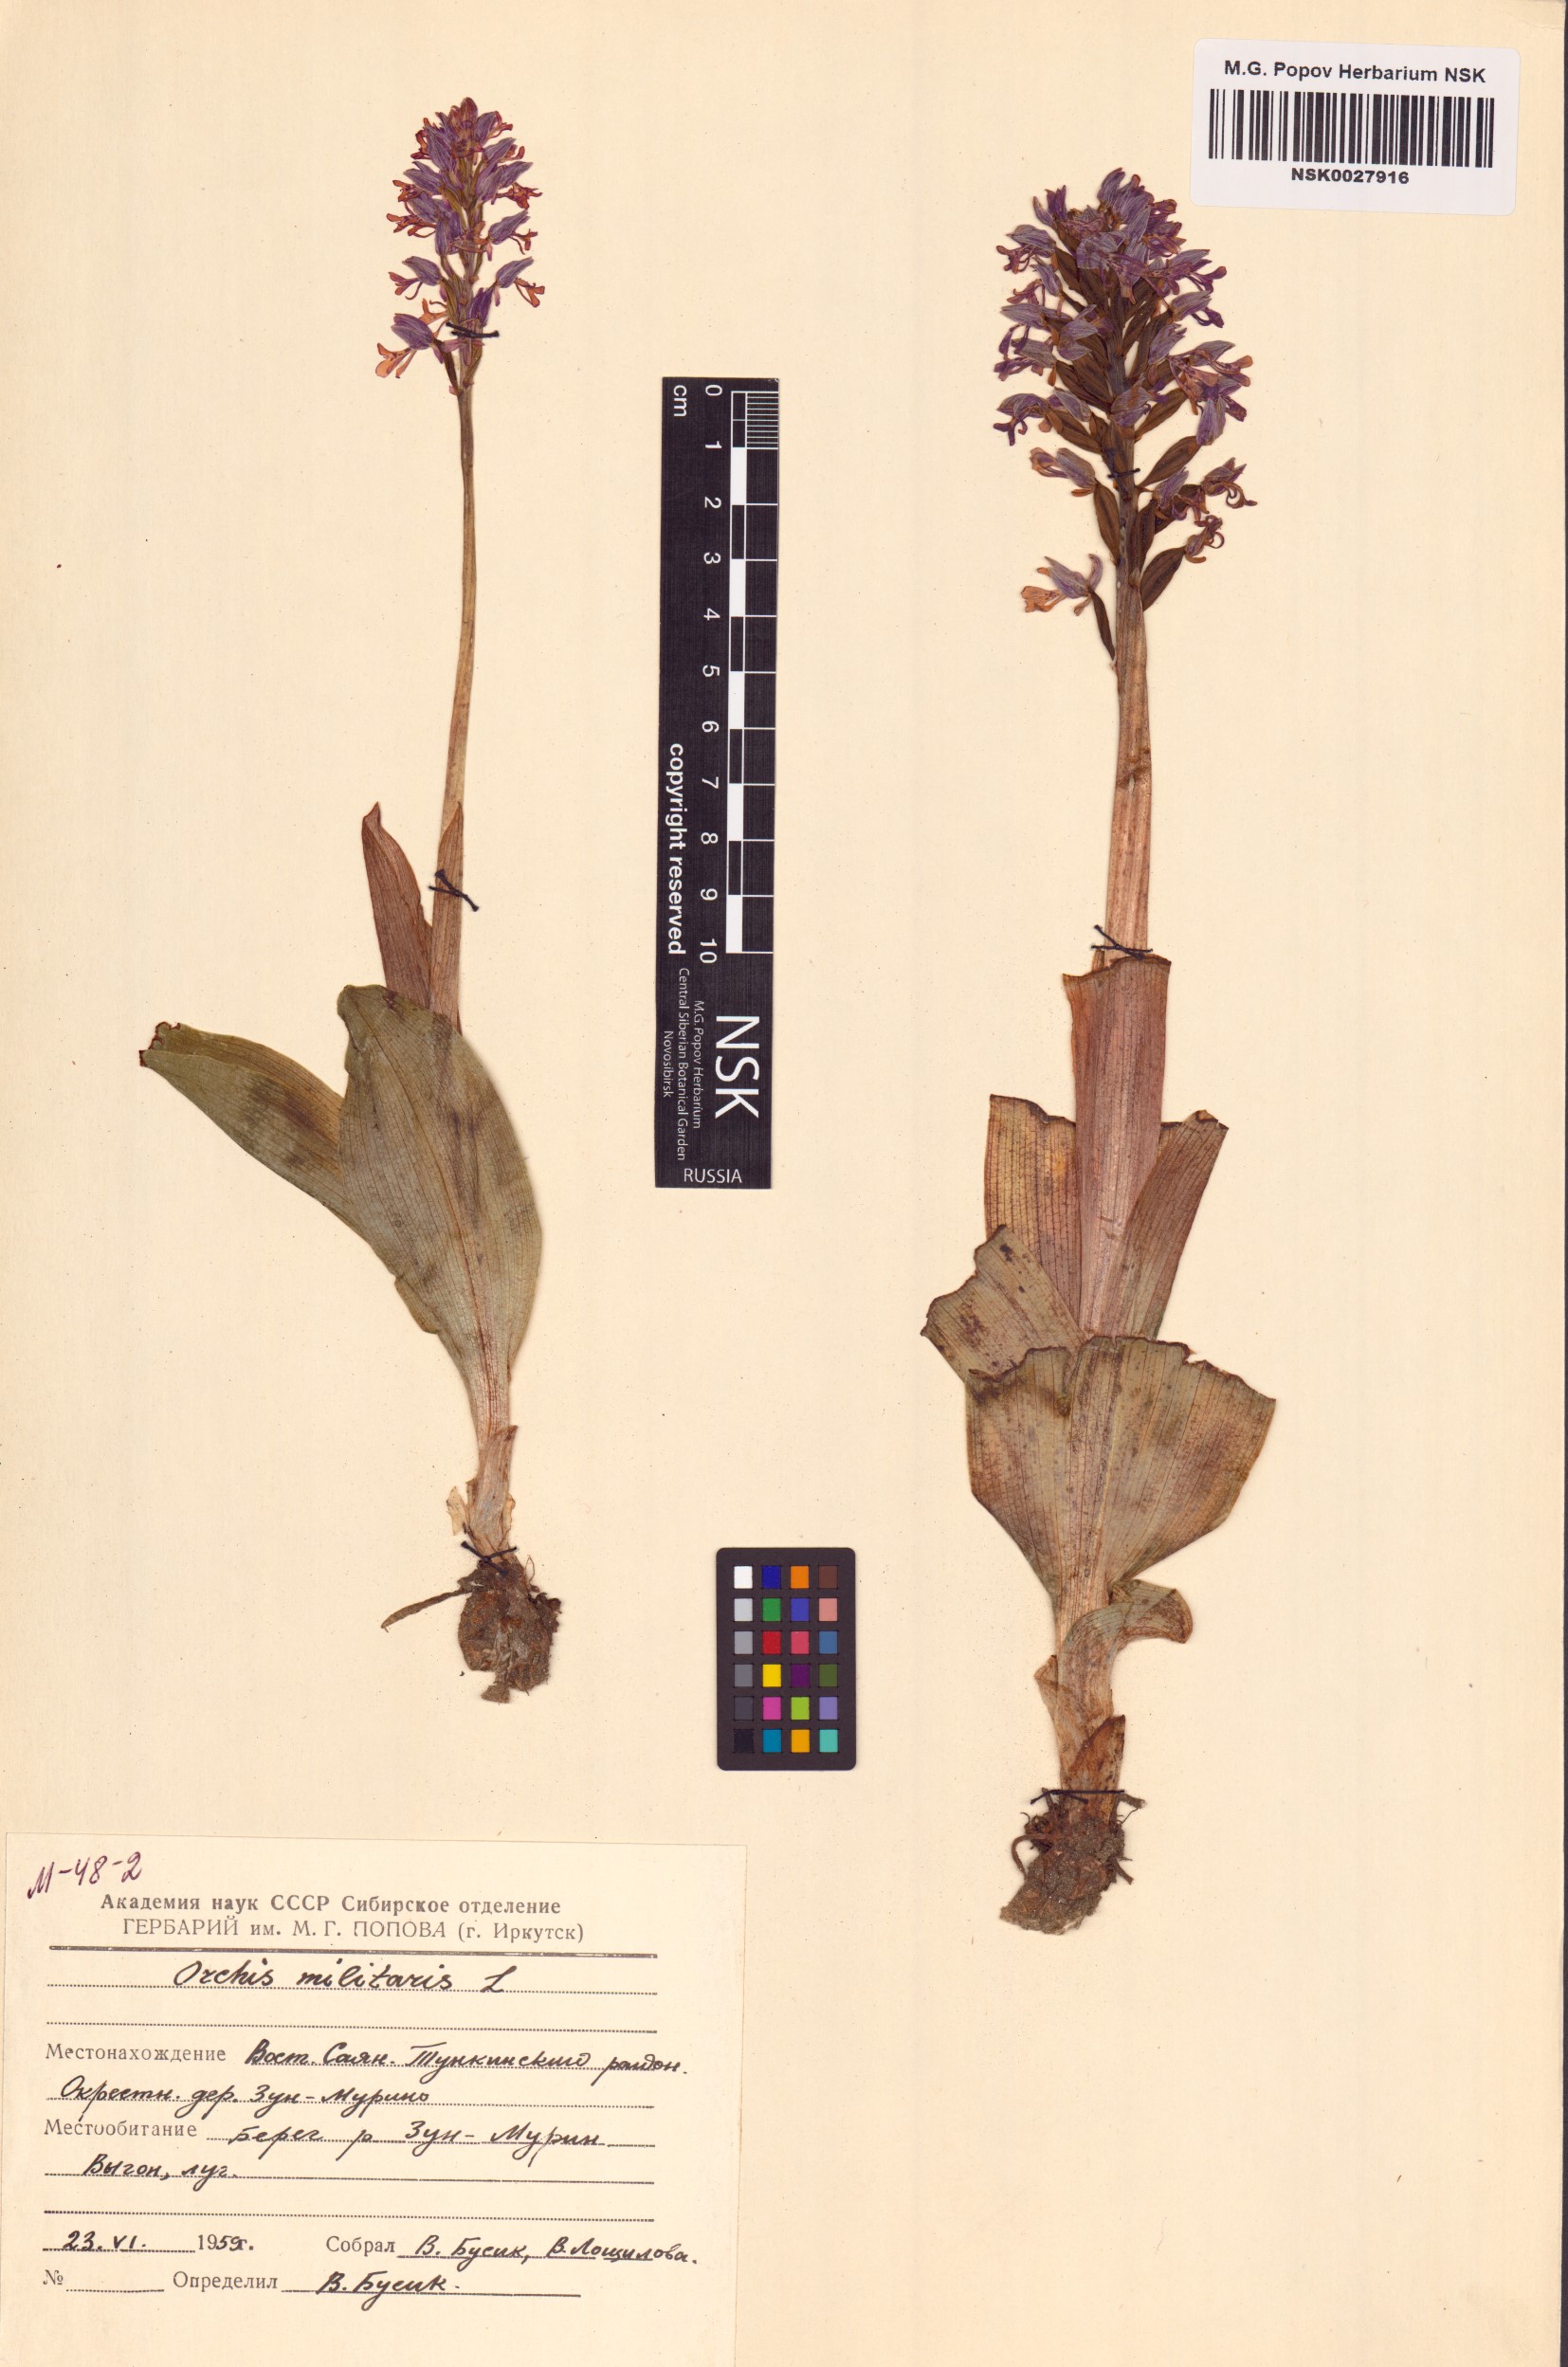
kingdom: Plantae
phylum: Tracheophyta
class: Liliopsida
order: Asparagales
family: Orchidaceae
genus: Orchis
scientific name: Orchis militaris
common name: Military orchid
